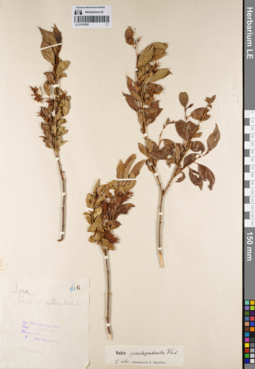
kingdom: Plantae
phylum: Tracheophyta
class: Magnoliopsida
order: Malpighiales
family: Salicaceae
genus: Salix
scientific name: Salix pseudopentandra
